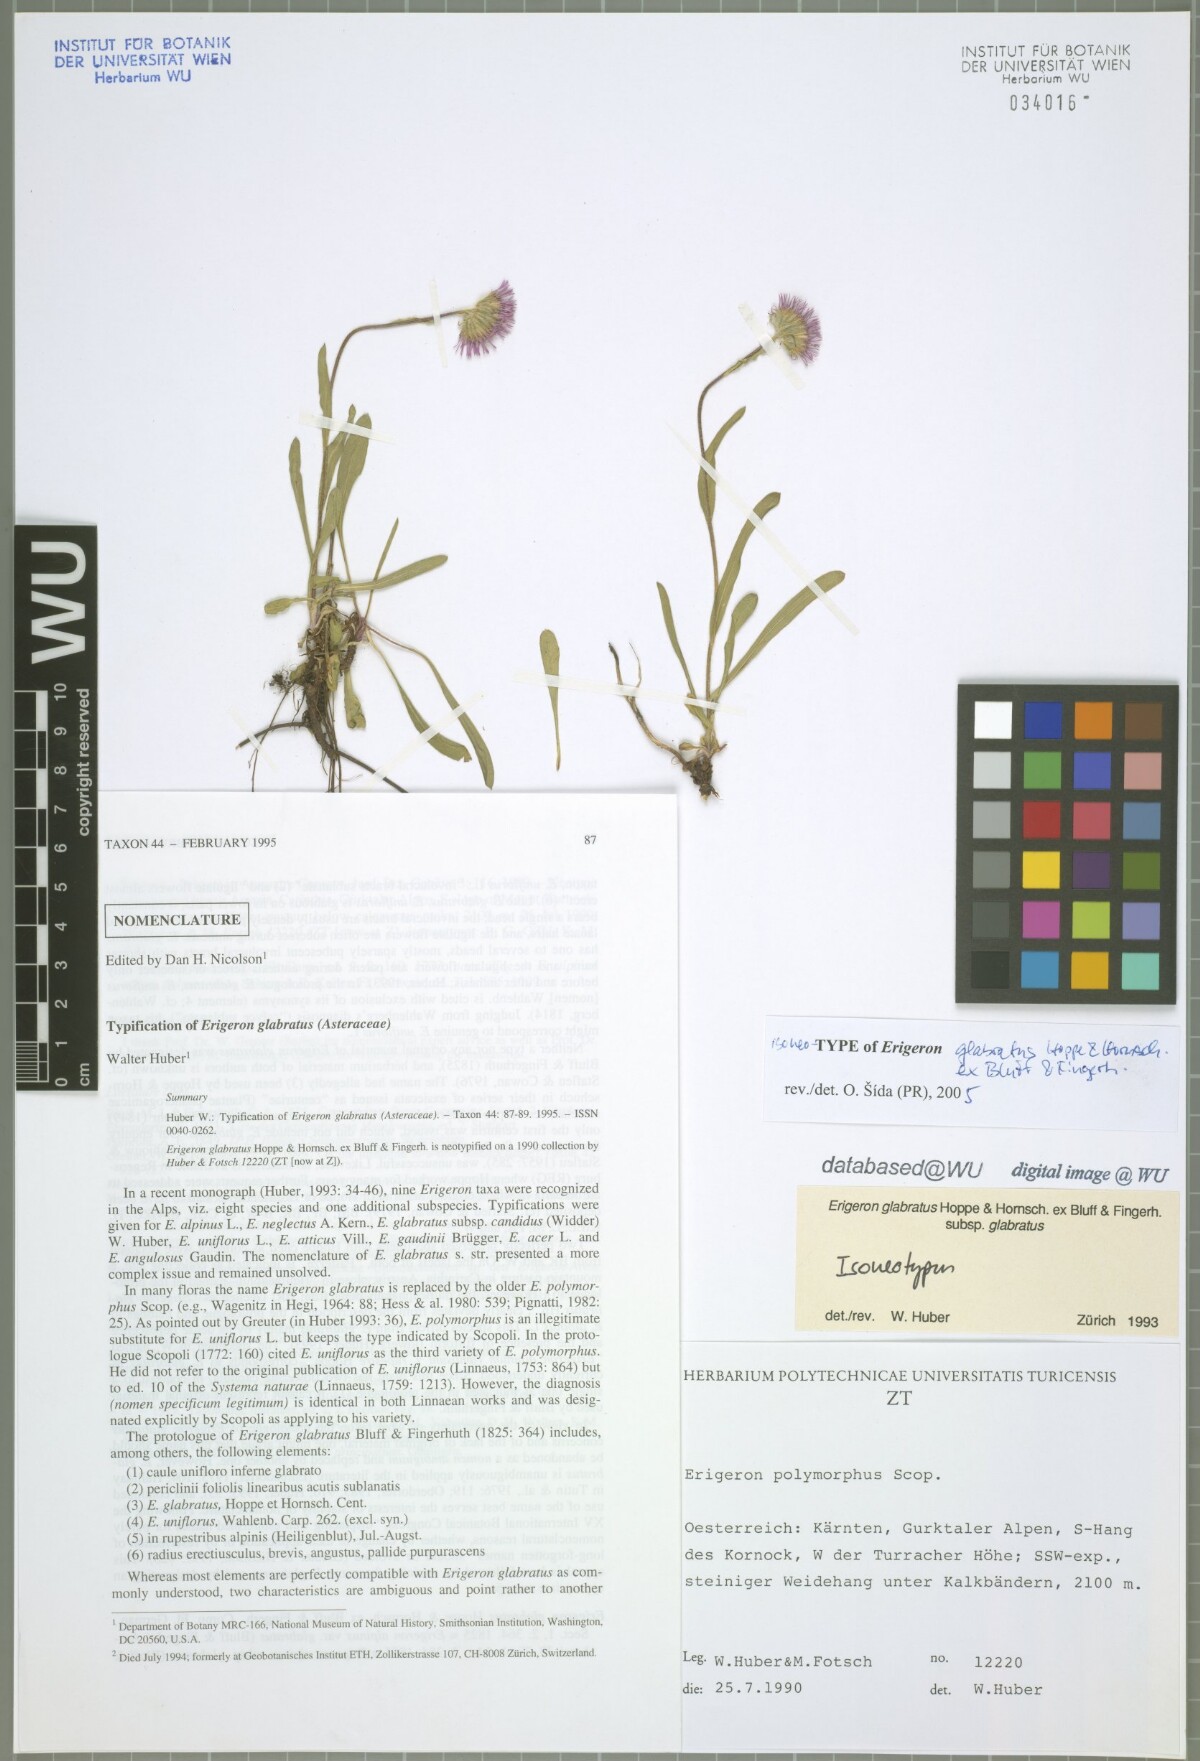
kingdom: Plantae
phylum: Tracheophyta
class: Magnoliopsida
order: Asterales
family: Asteraceae
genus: Erigeron
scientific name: Erigeron glabratus
